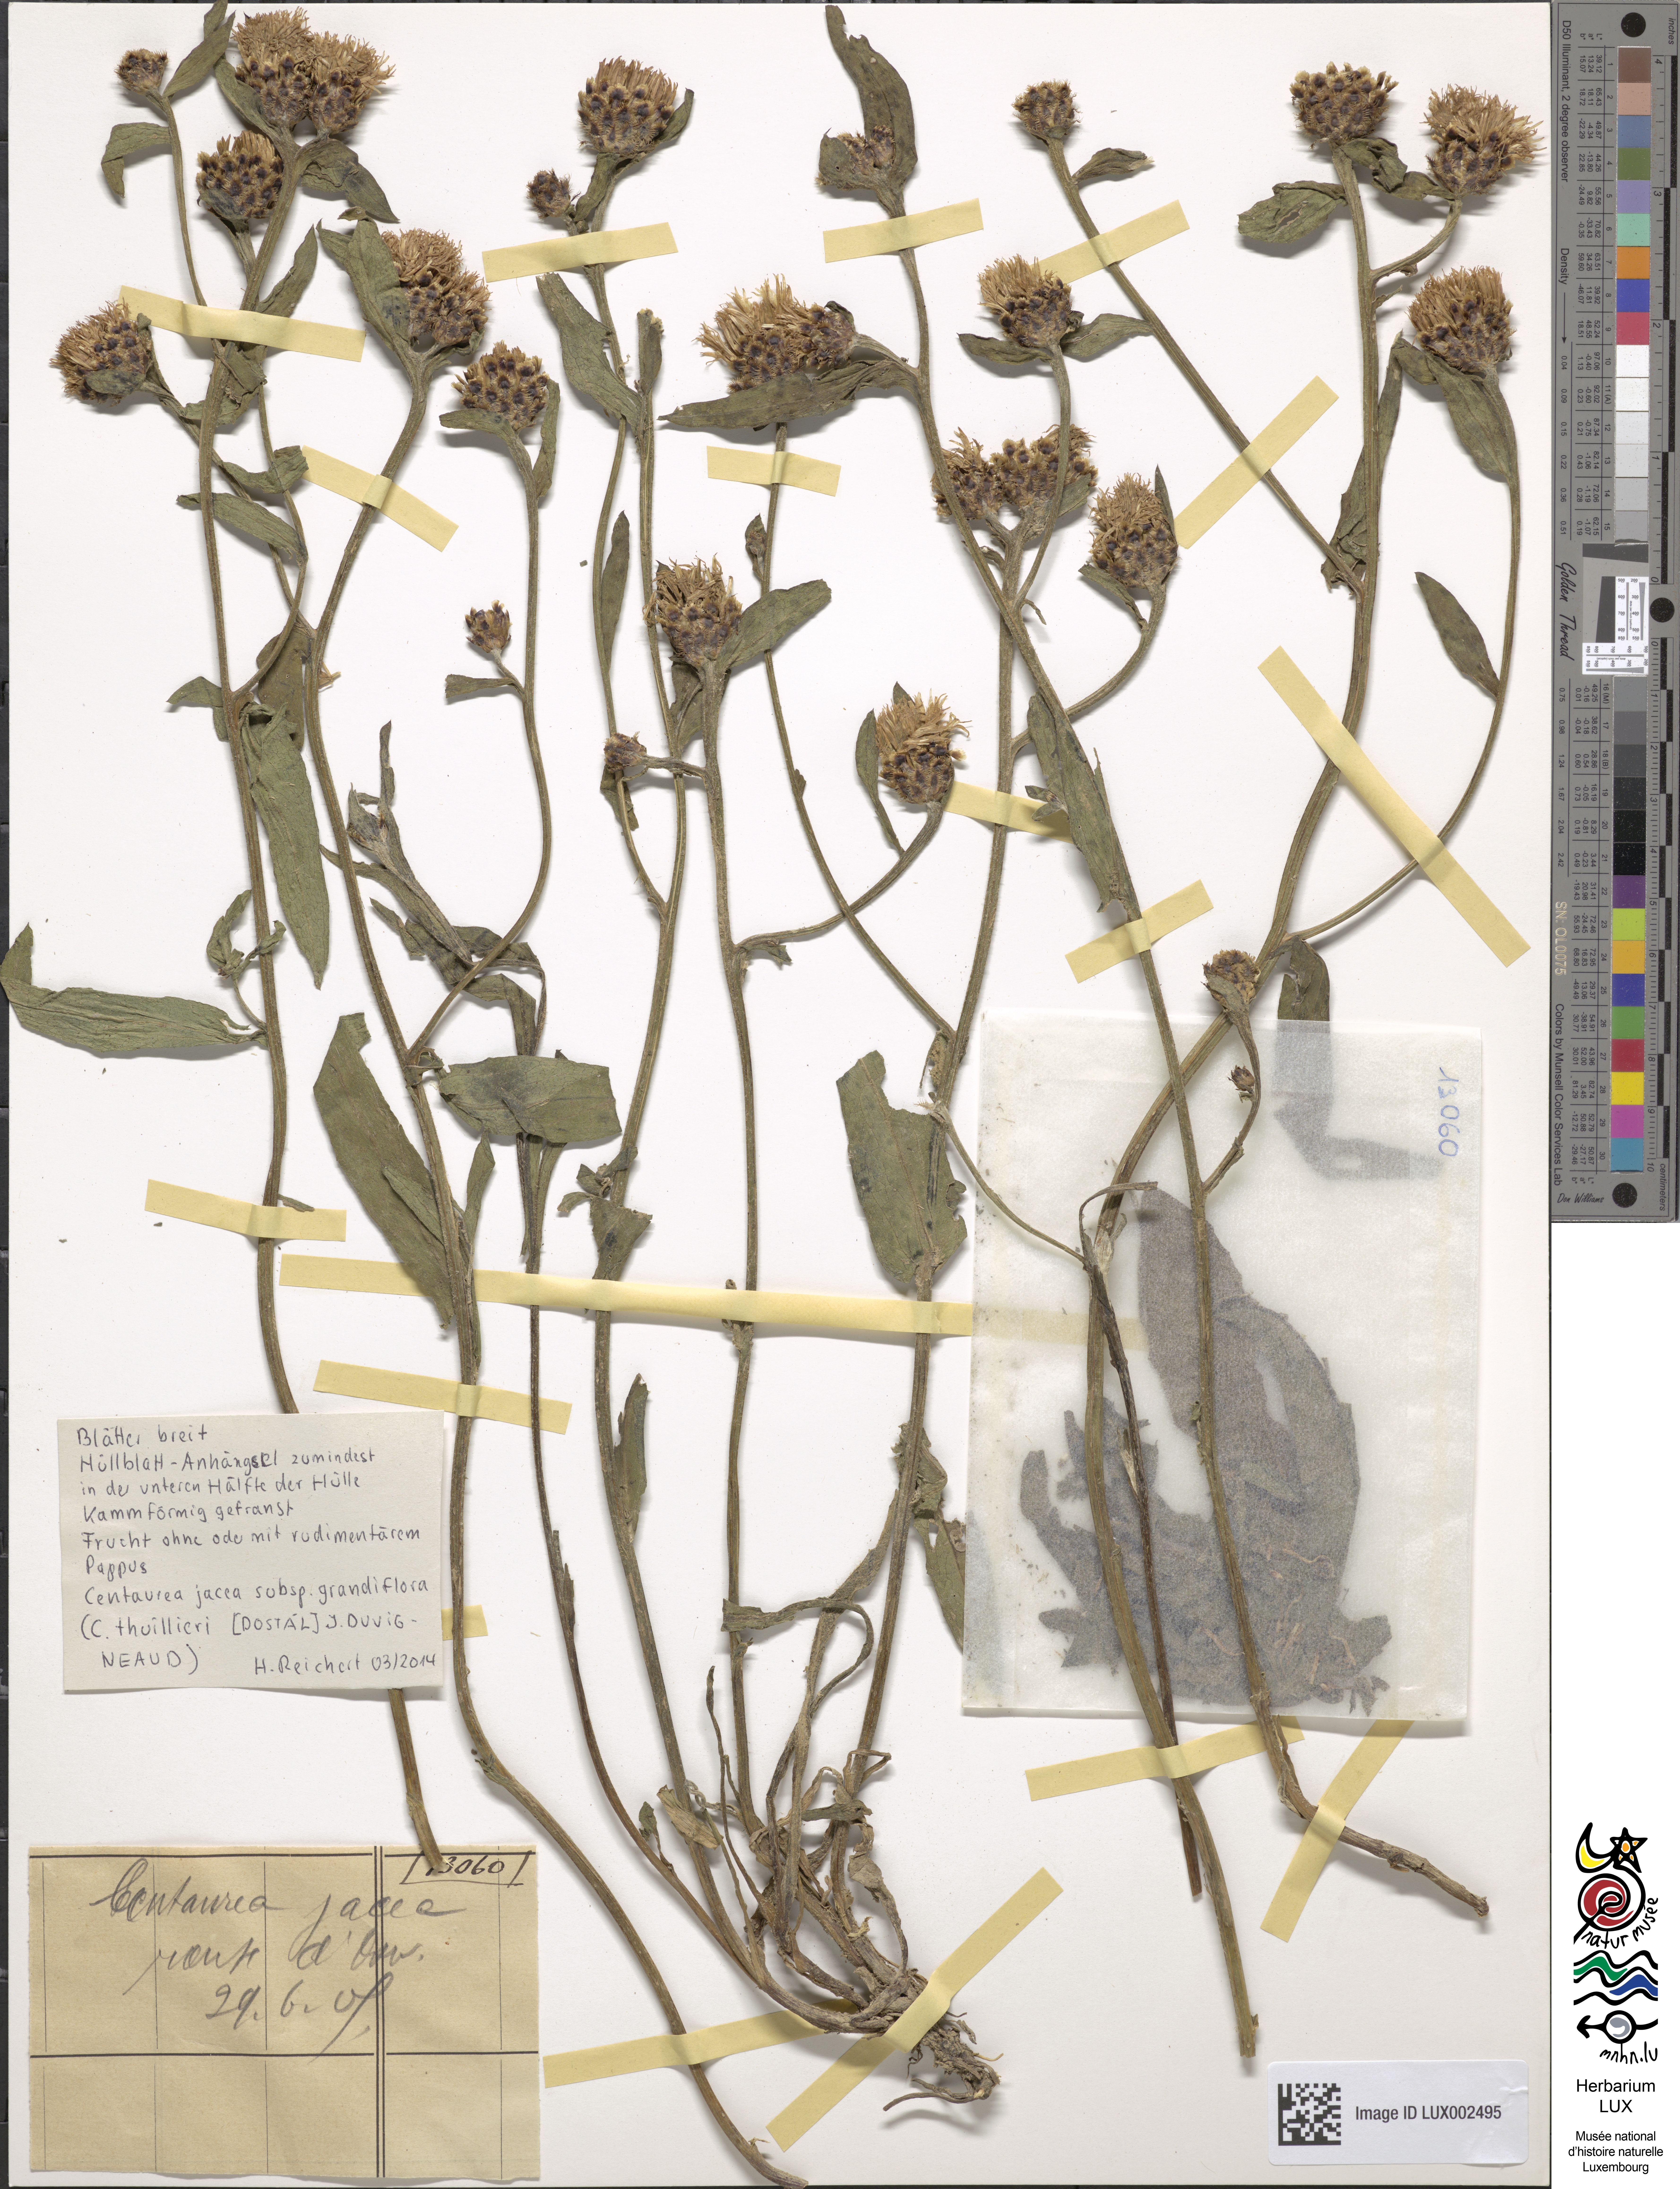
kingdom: Plantae
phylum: Tracheophyta
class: Magnoliopsida
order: Asterales
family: Asteraceae
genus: Centaurea
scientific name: Centaurea jacea
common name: Brown knapweed
